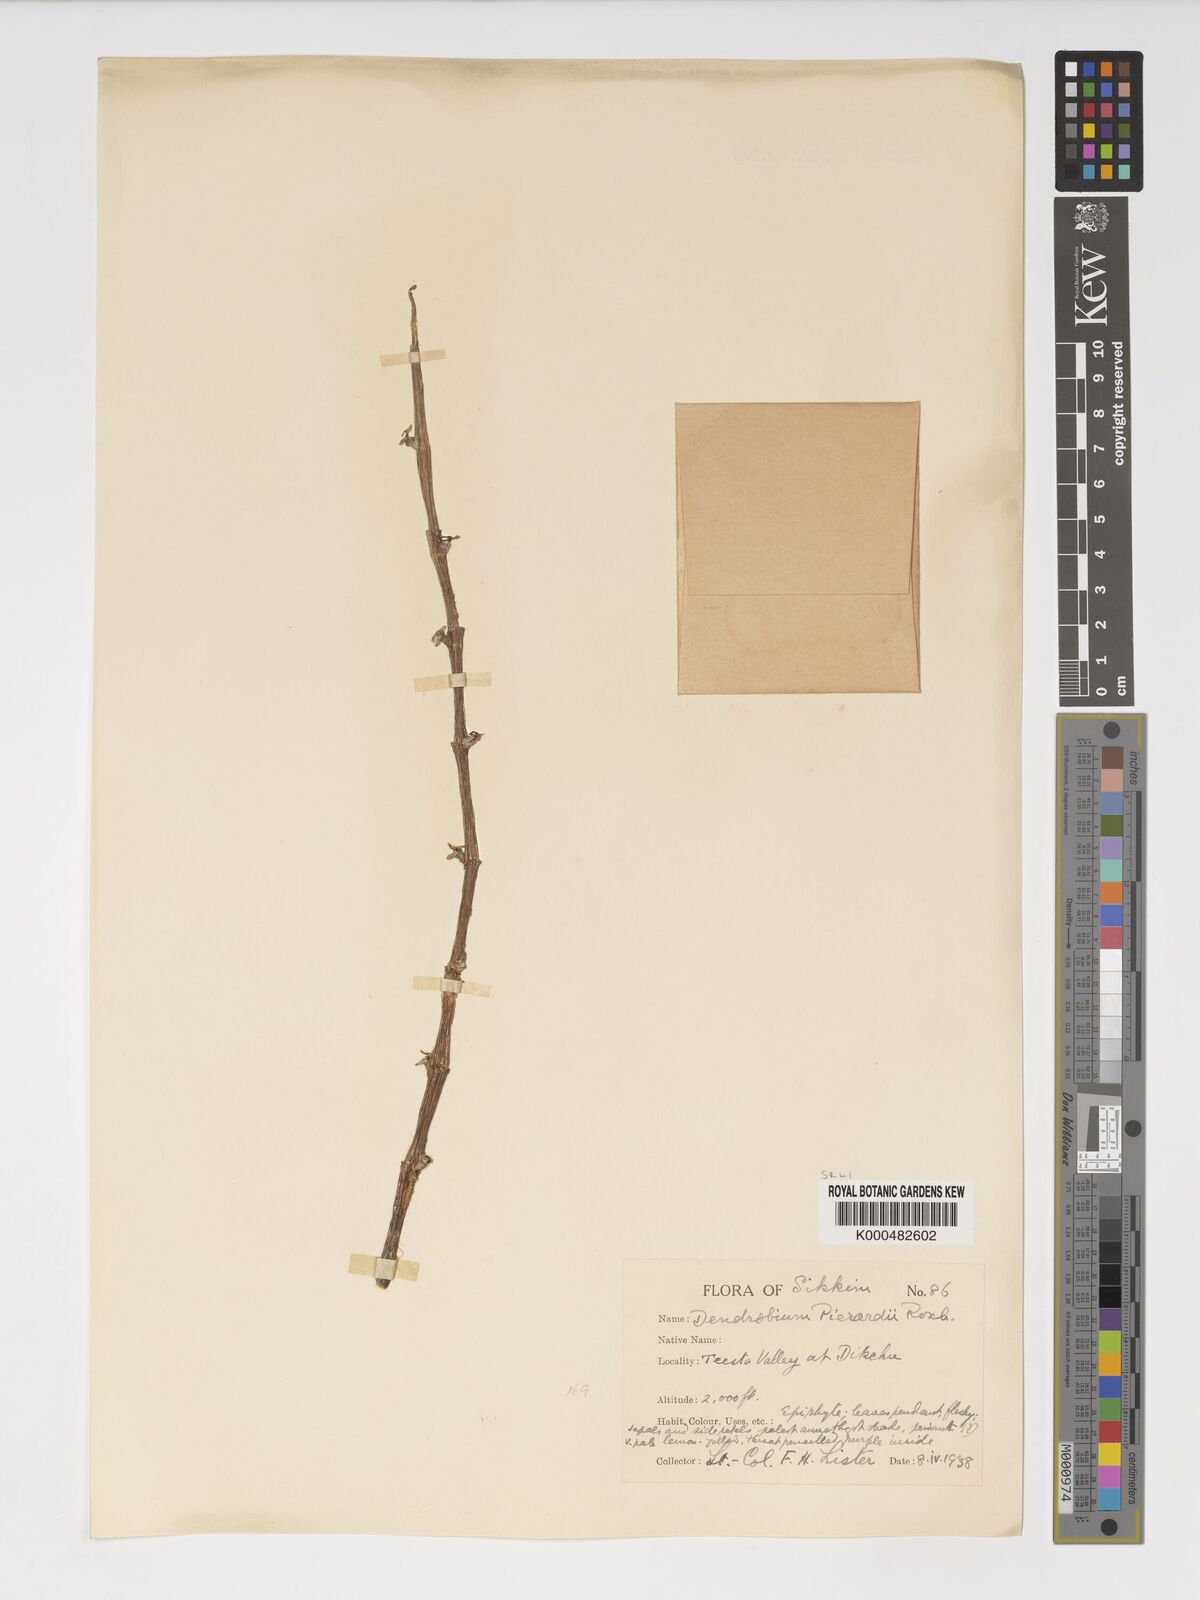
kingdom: Plantae
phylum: Tracheophyta
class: Liliopsida
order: Asparagales
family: Orchidaceae
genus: Dendrobium
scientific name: Dendrobium macrostachyum
